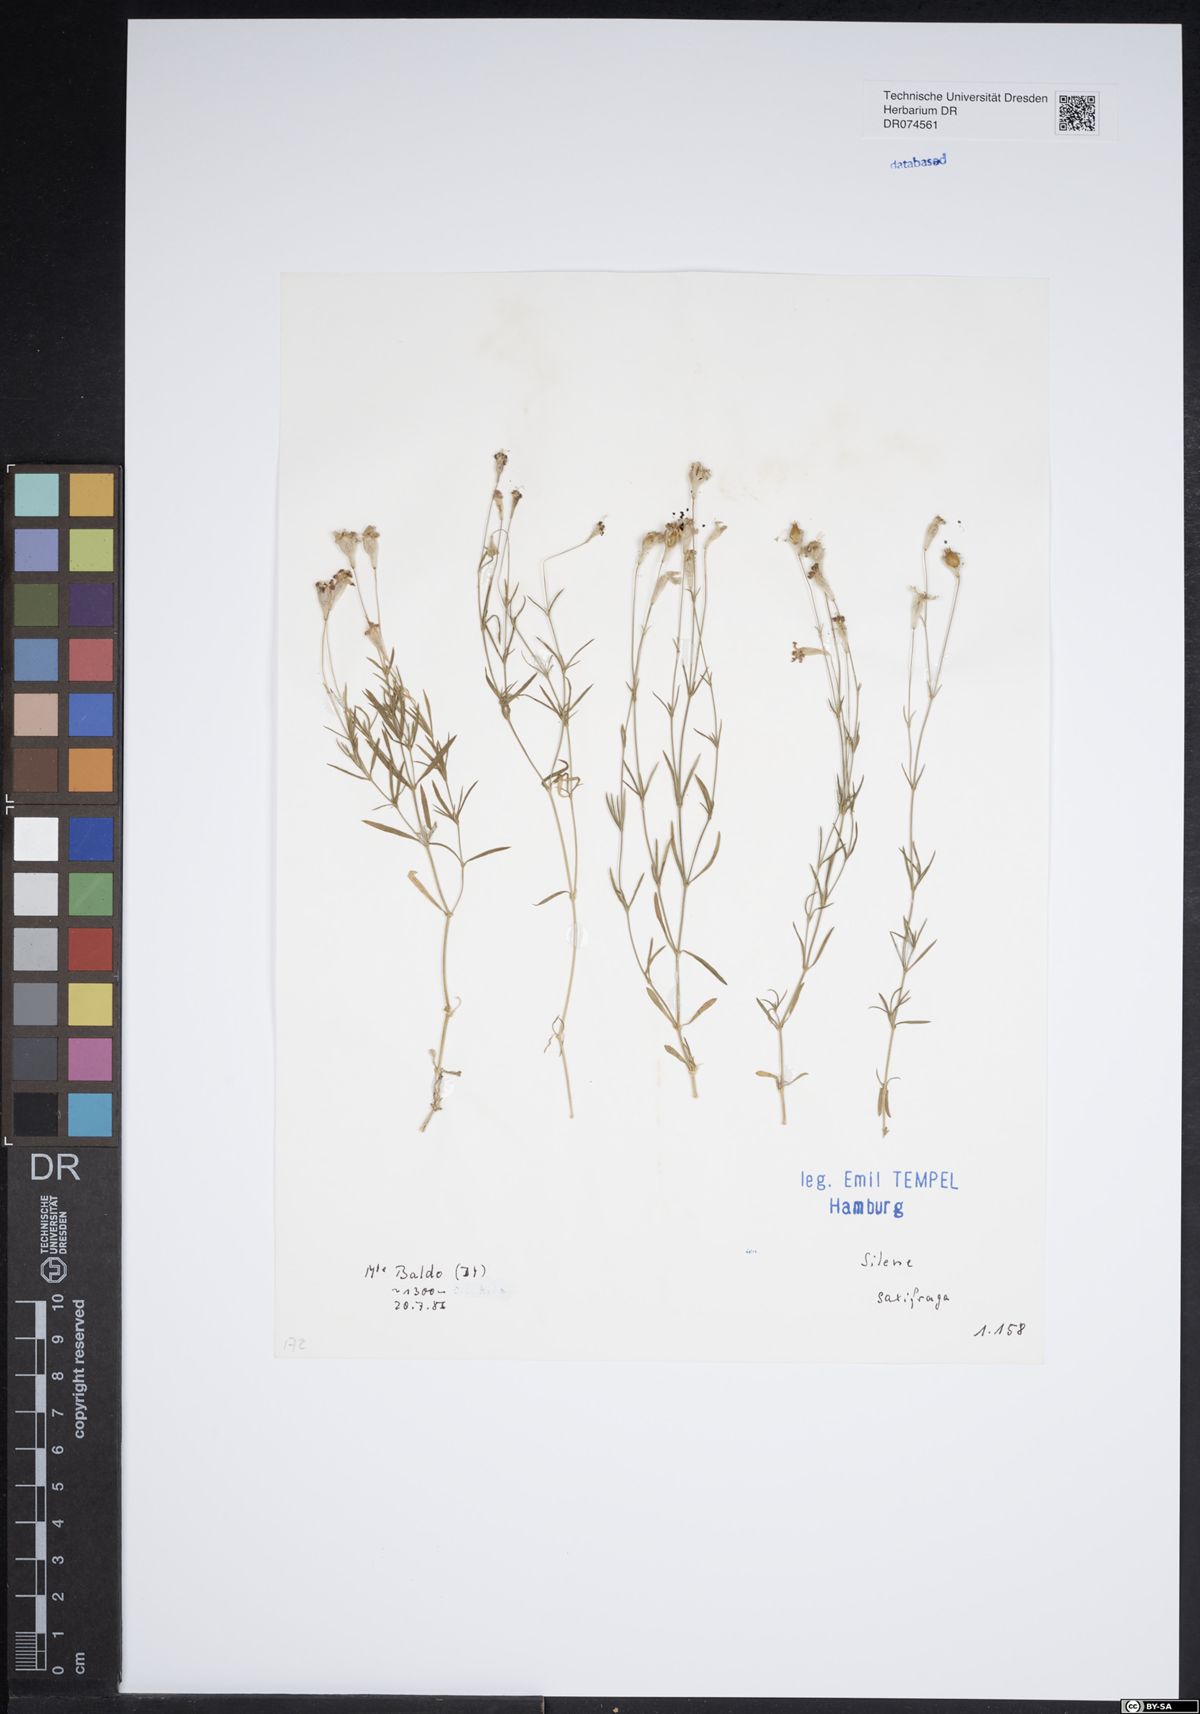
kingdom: Plantae
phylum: Tracheophyta
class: Magnoliopsida
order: Caryophyllales
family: Caryophyllaceae
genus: Silene
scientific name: Silene saxifraga
